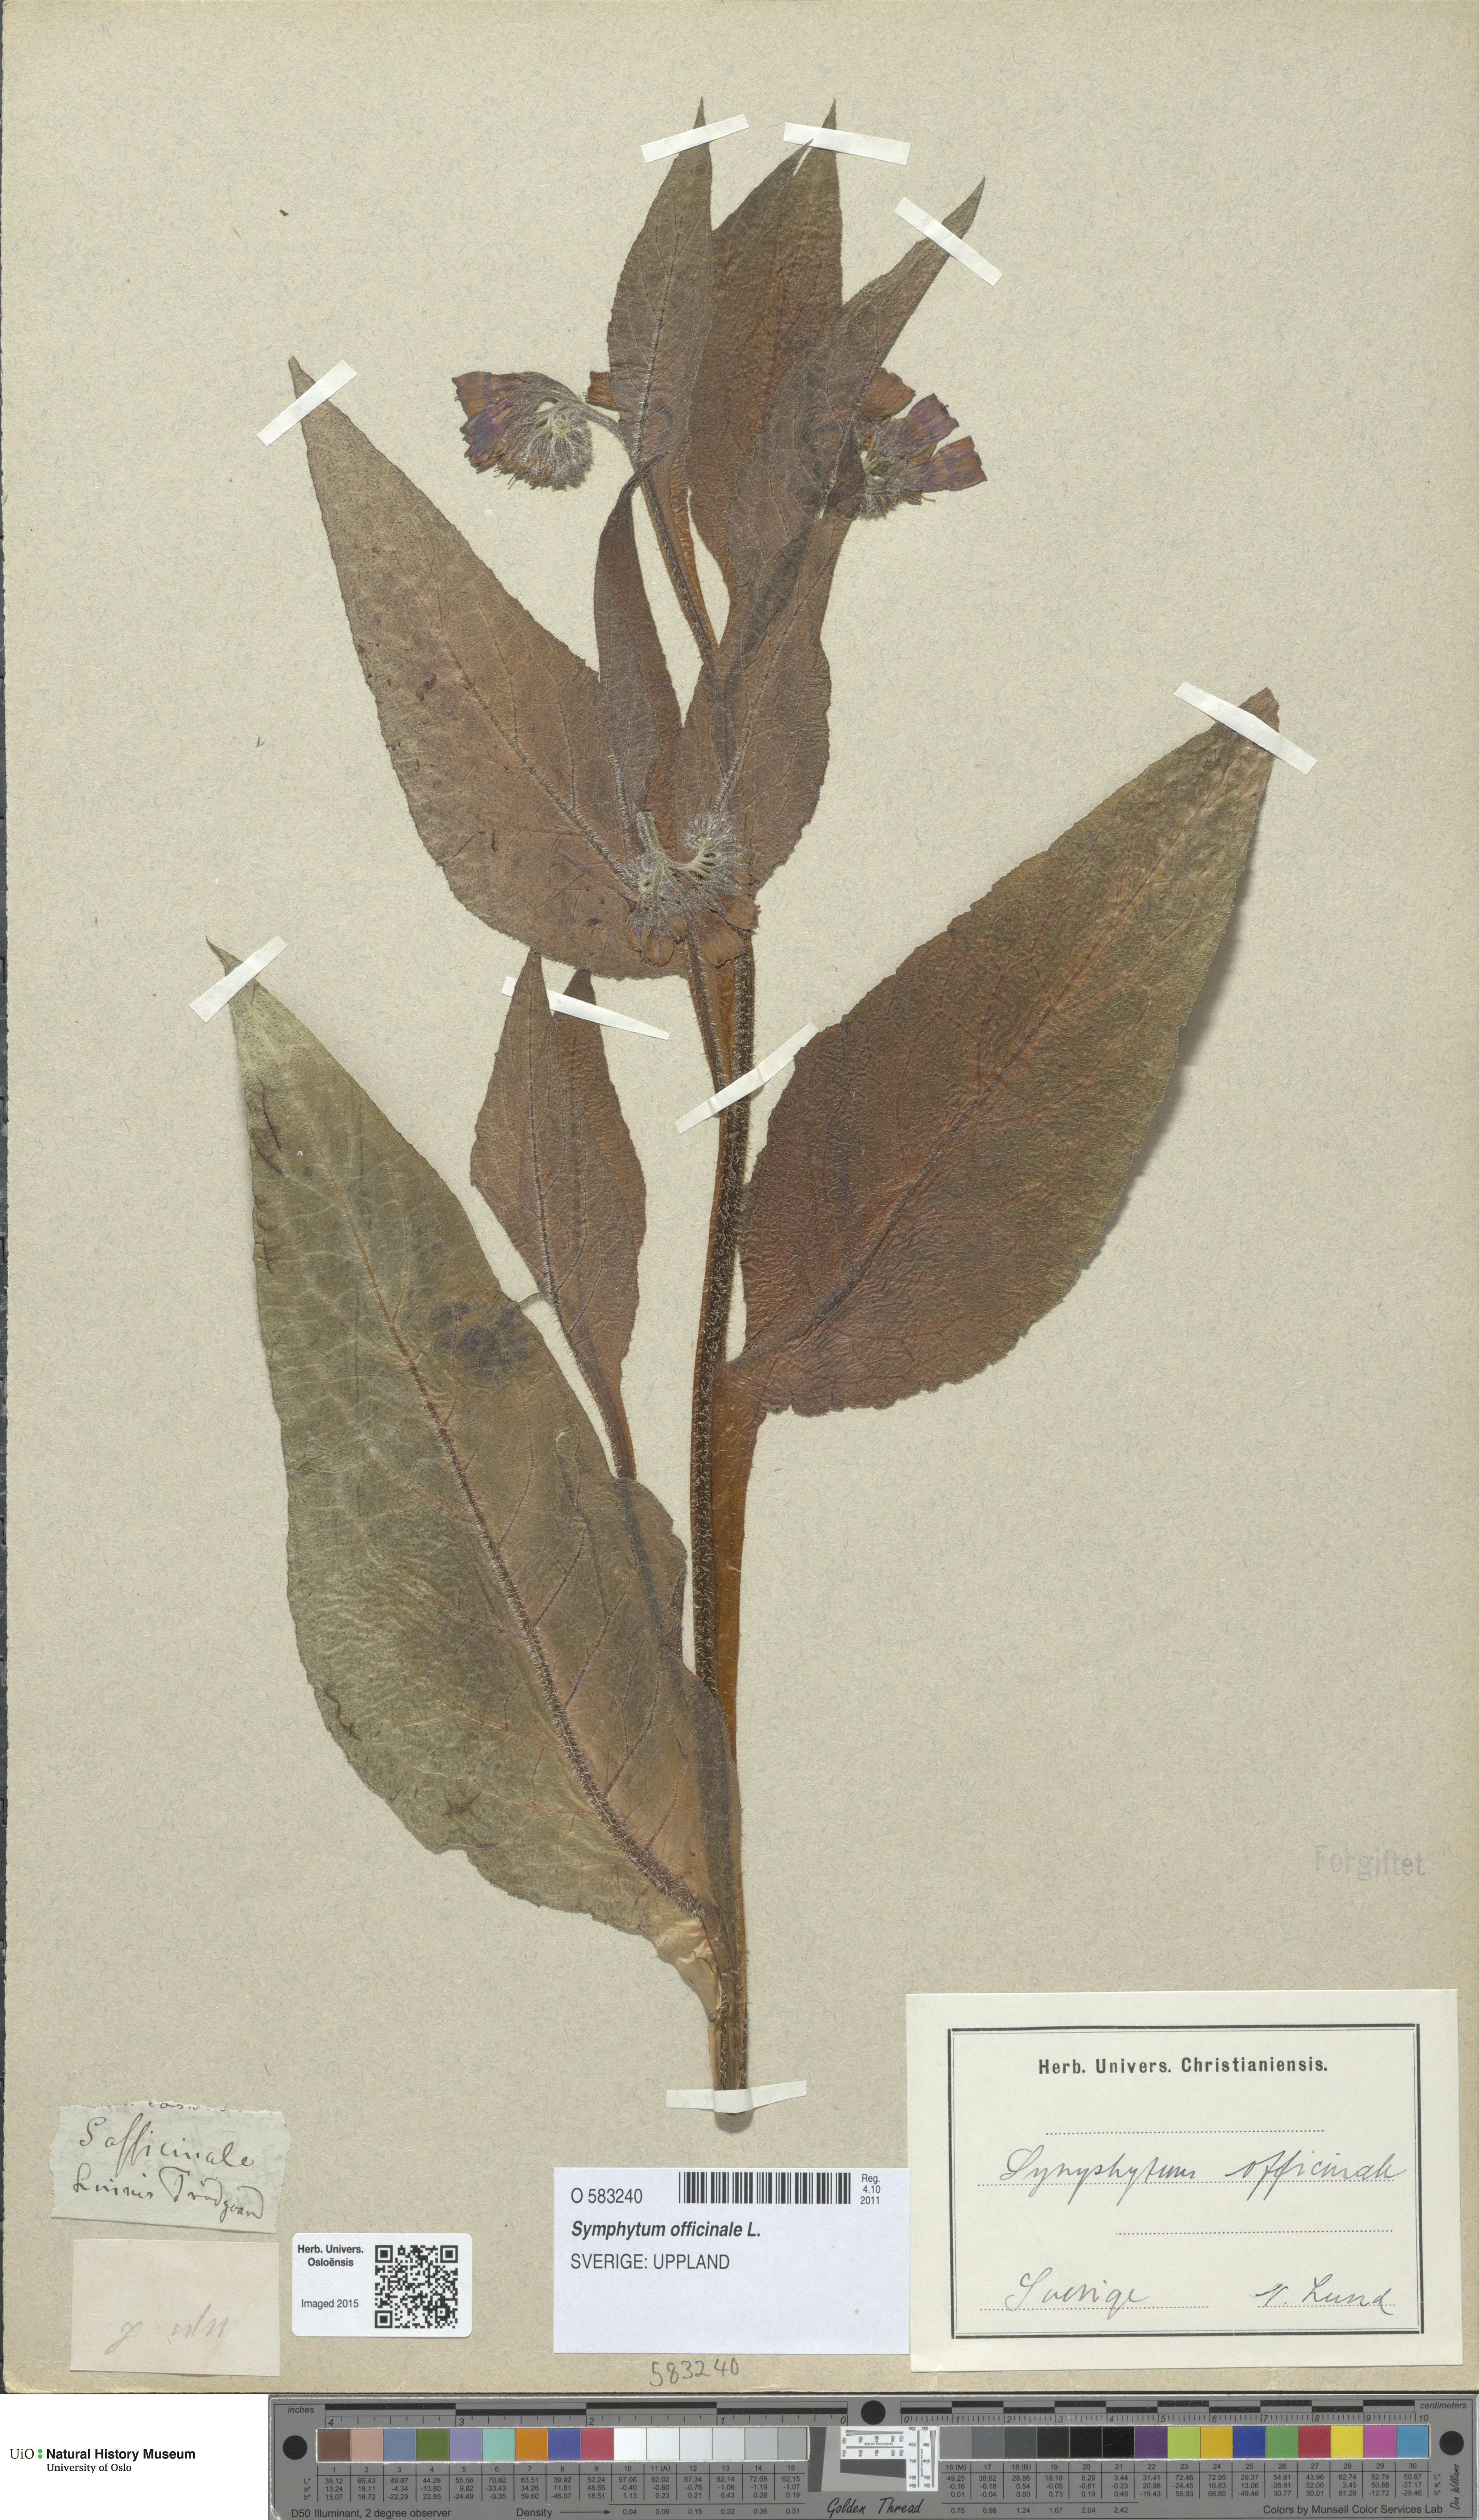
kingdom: Plantae
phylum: Tracheophyta
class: Magnoliopsida
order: Boraginales
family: Boraginaceae
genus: Symphytum
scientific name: Symphytum officinale
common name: Common comfrey
